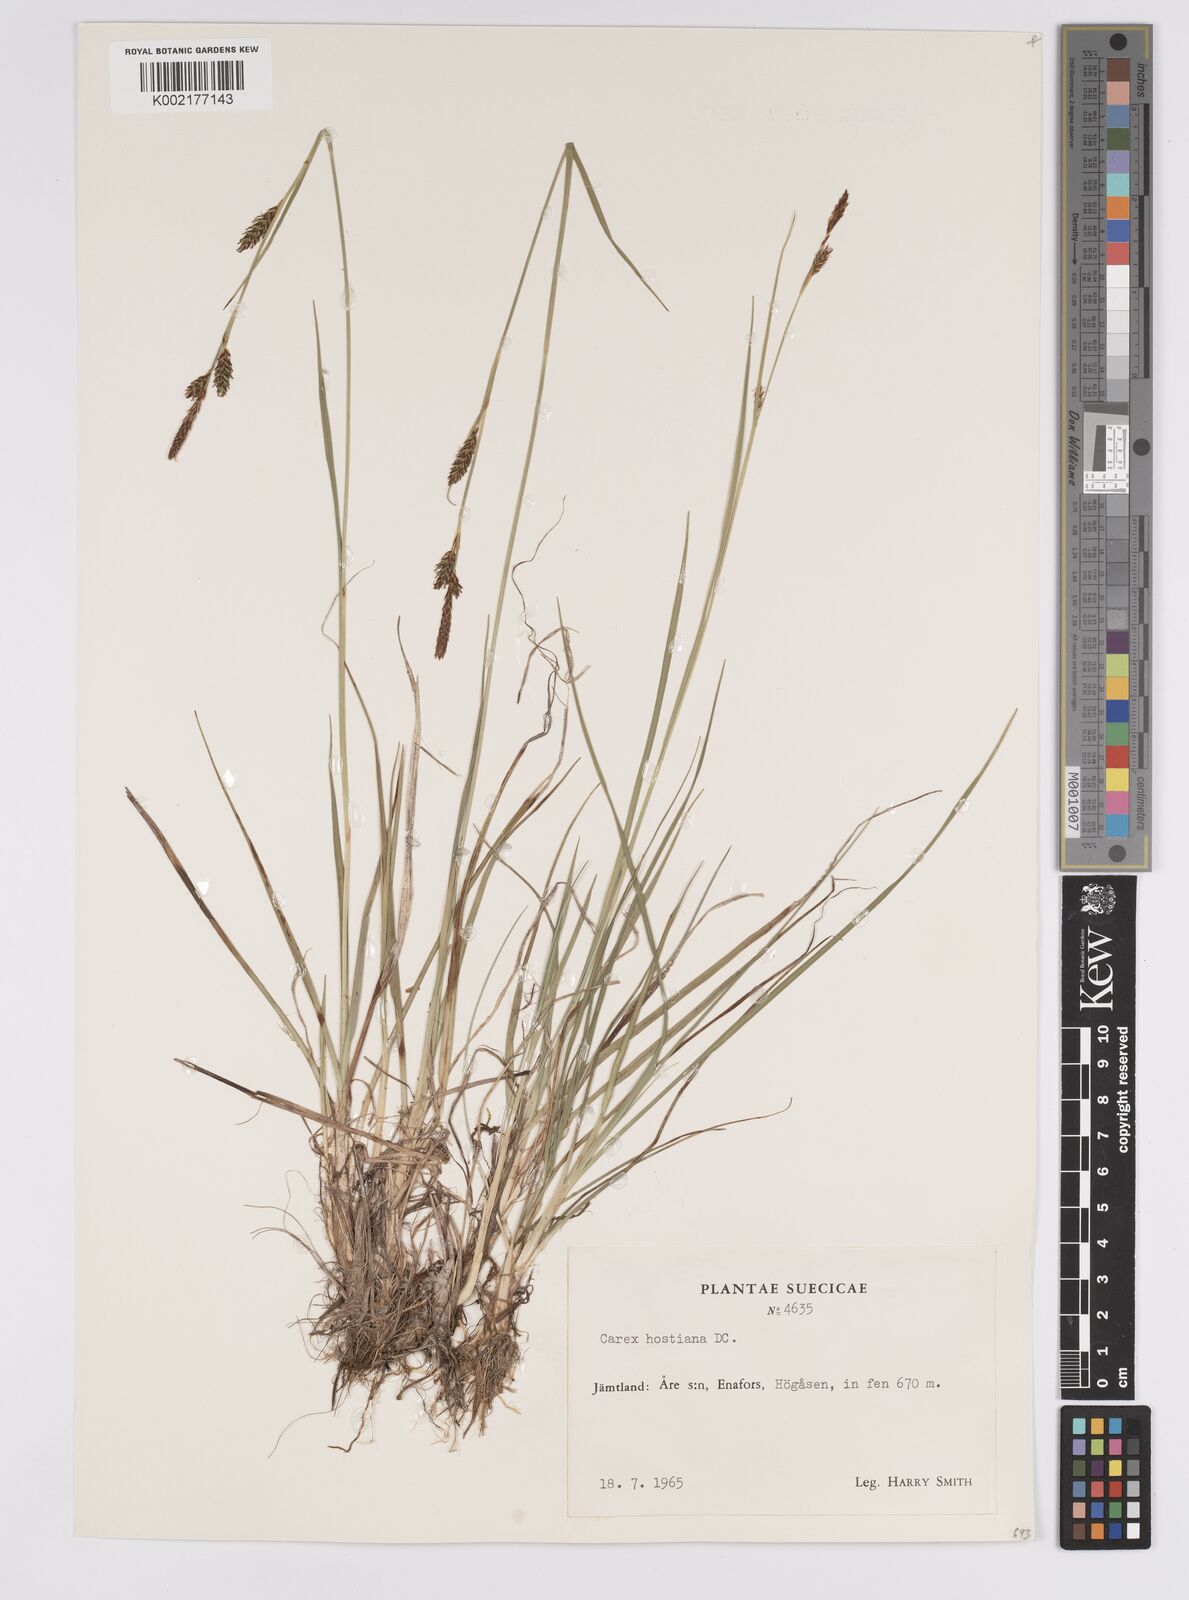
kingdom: Plantae
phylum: Tracheophyta
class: Liliopsida
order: Poales
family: Cyperaceae
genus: Carex
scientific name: Carex hostiana
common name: Tawny sedge
